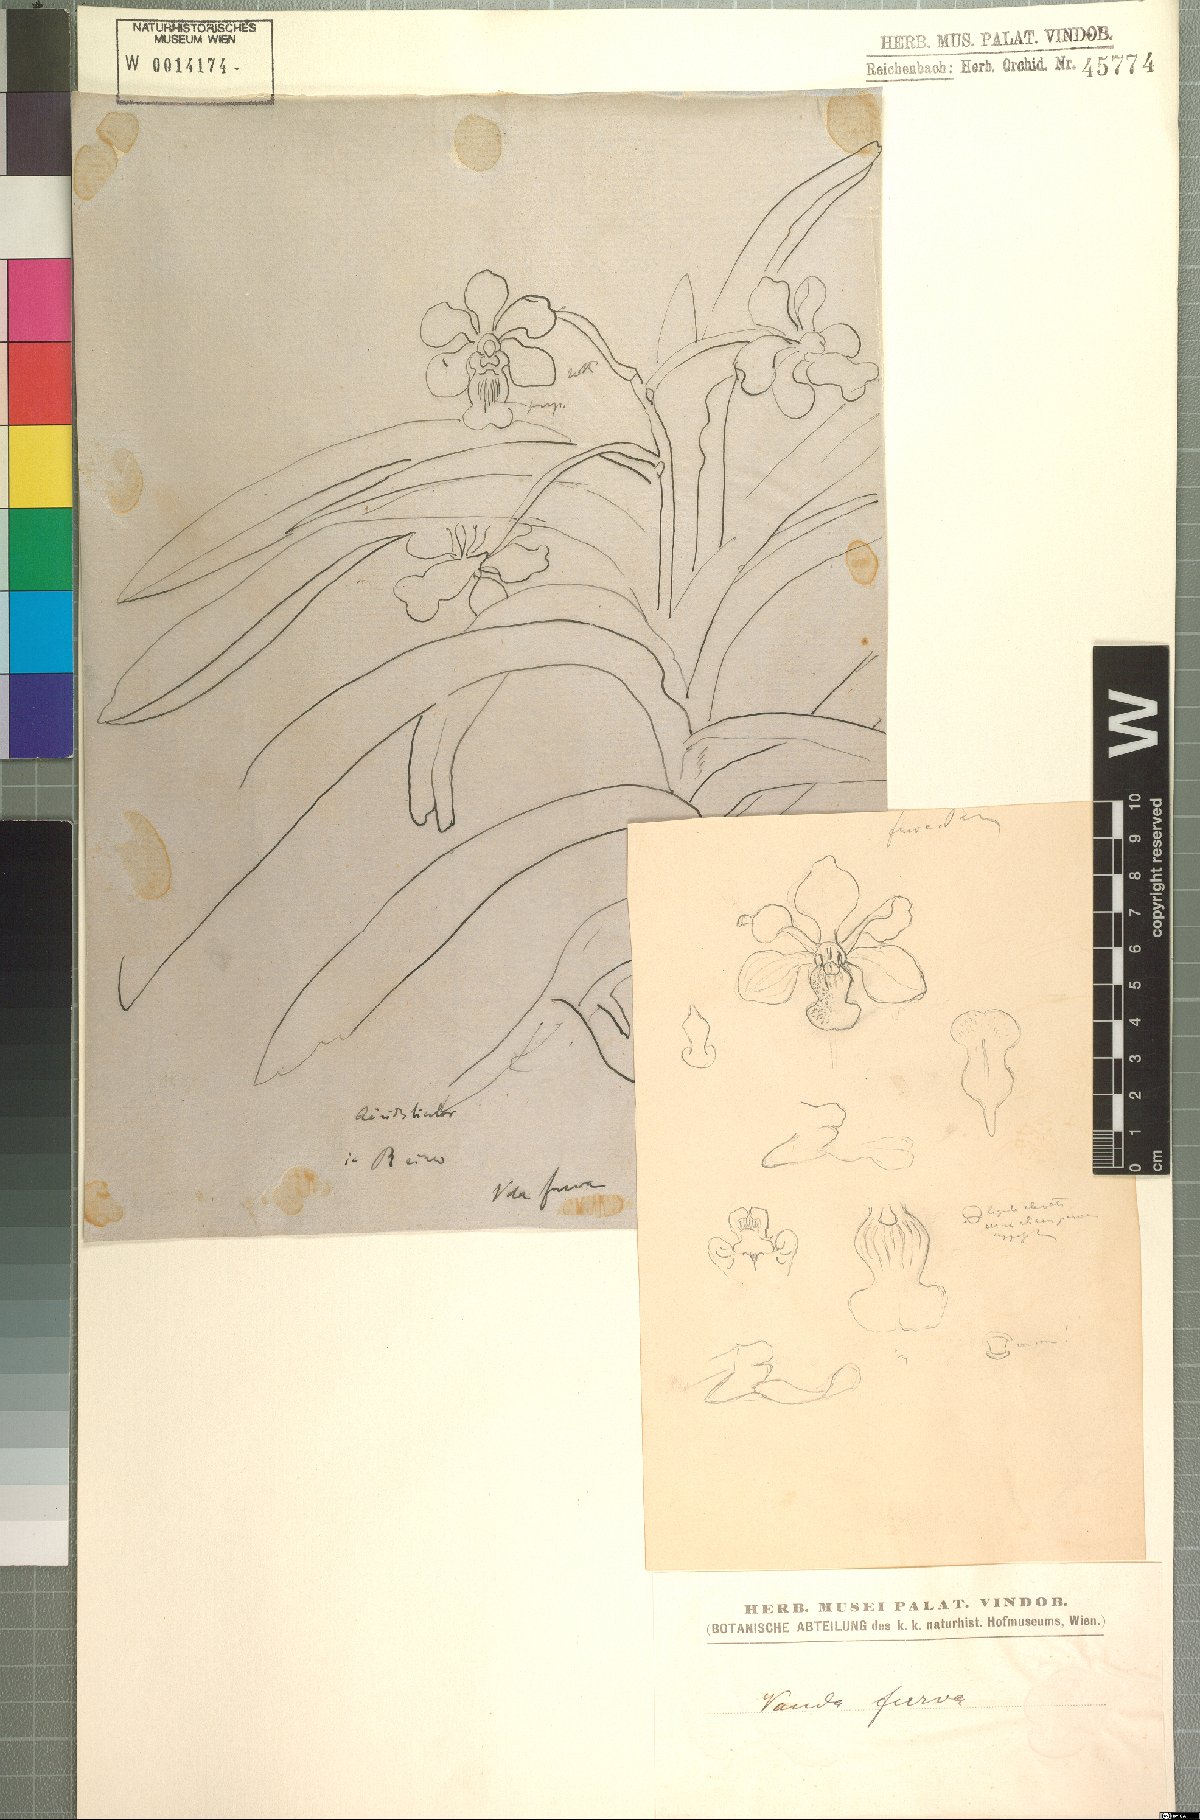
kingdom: Plantae
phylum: Tracheophyta
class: Liliopsida
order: Asparagales
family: Orchidaceae
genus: Vanda
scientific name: Vanda furva
